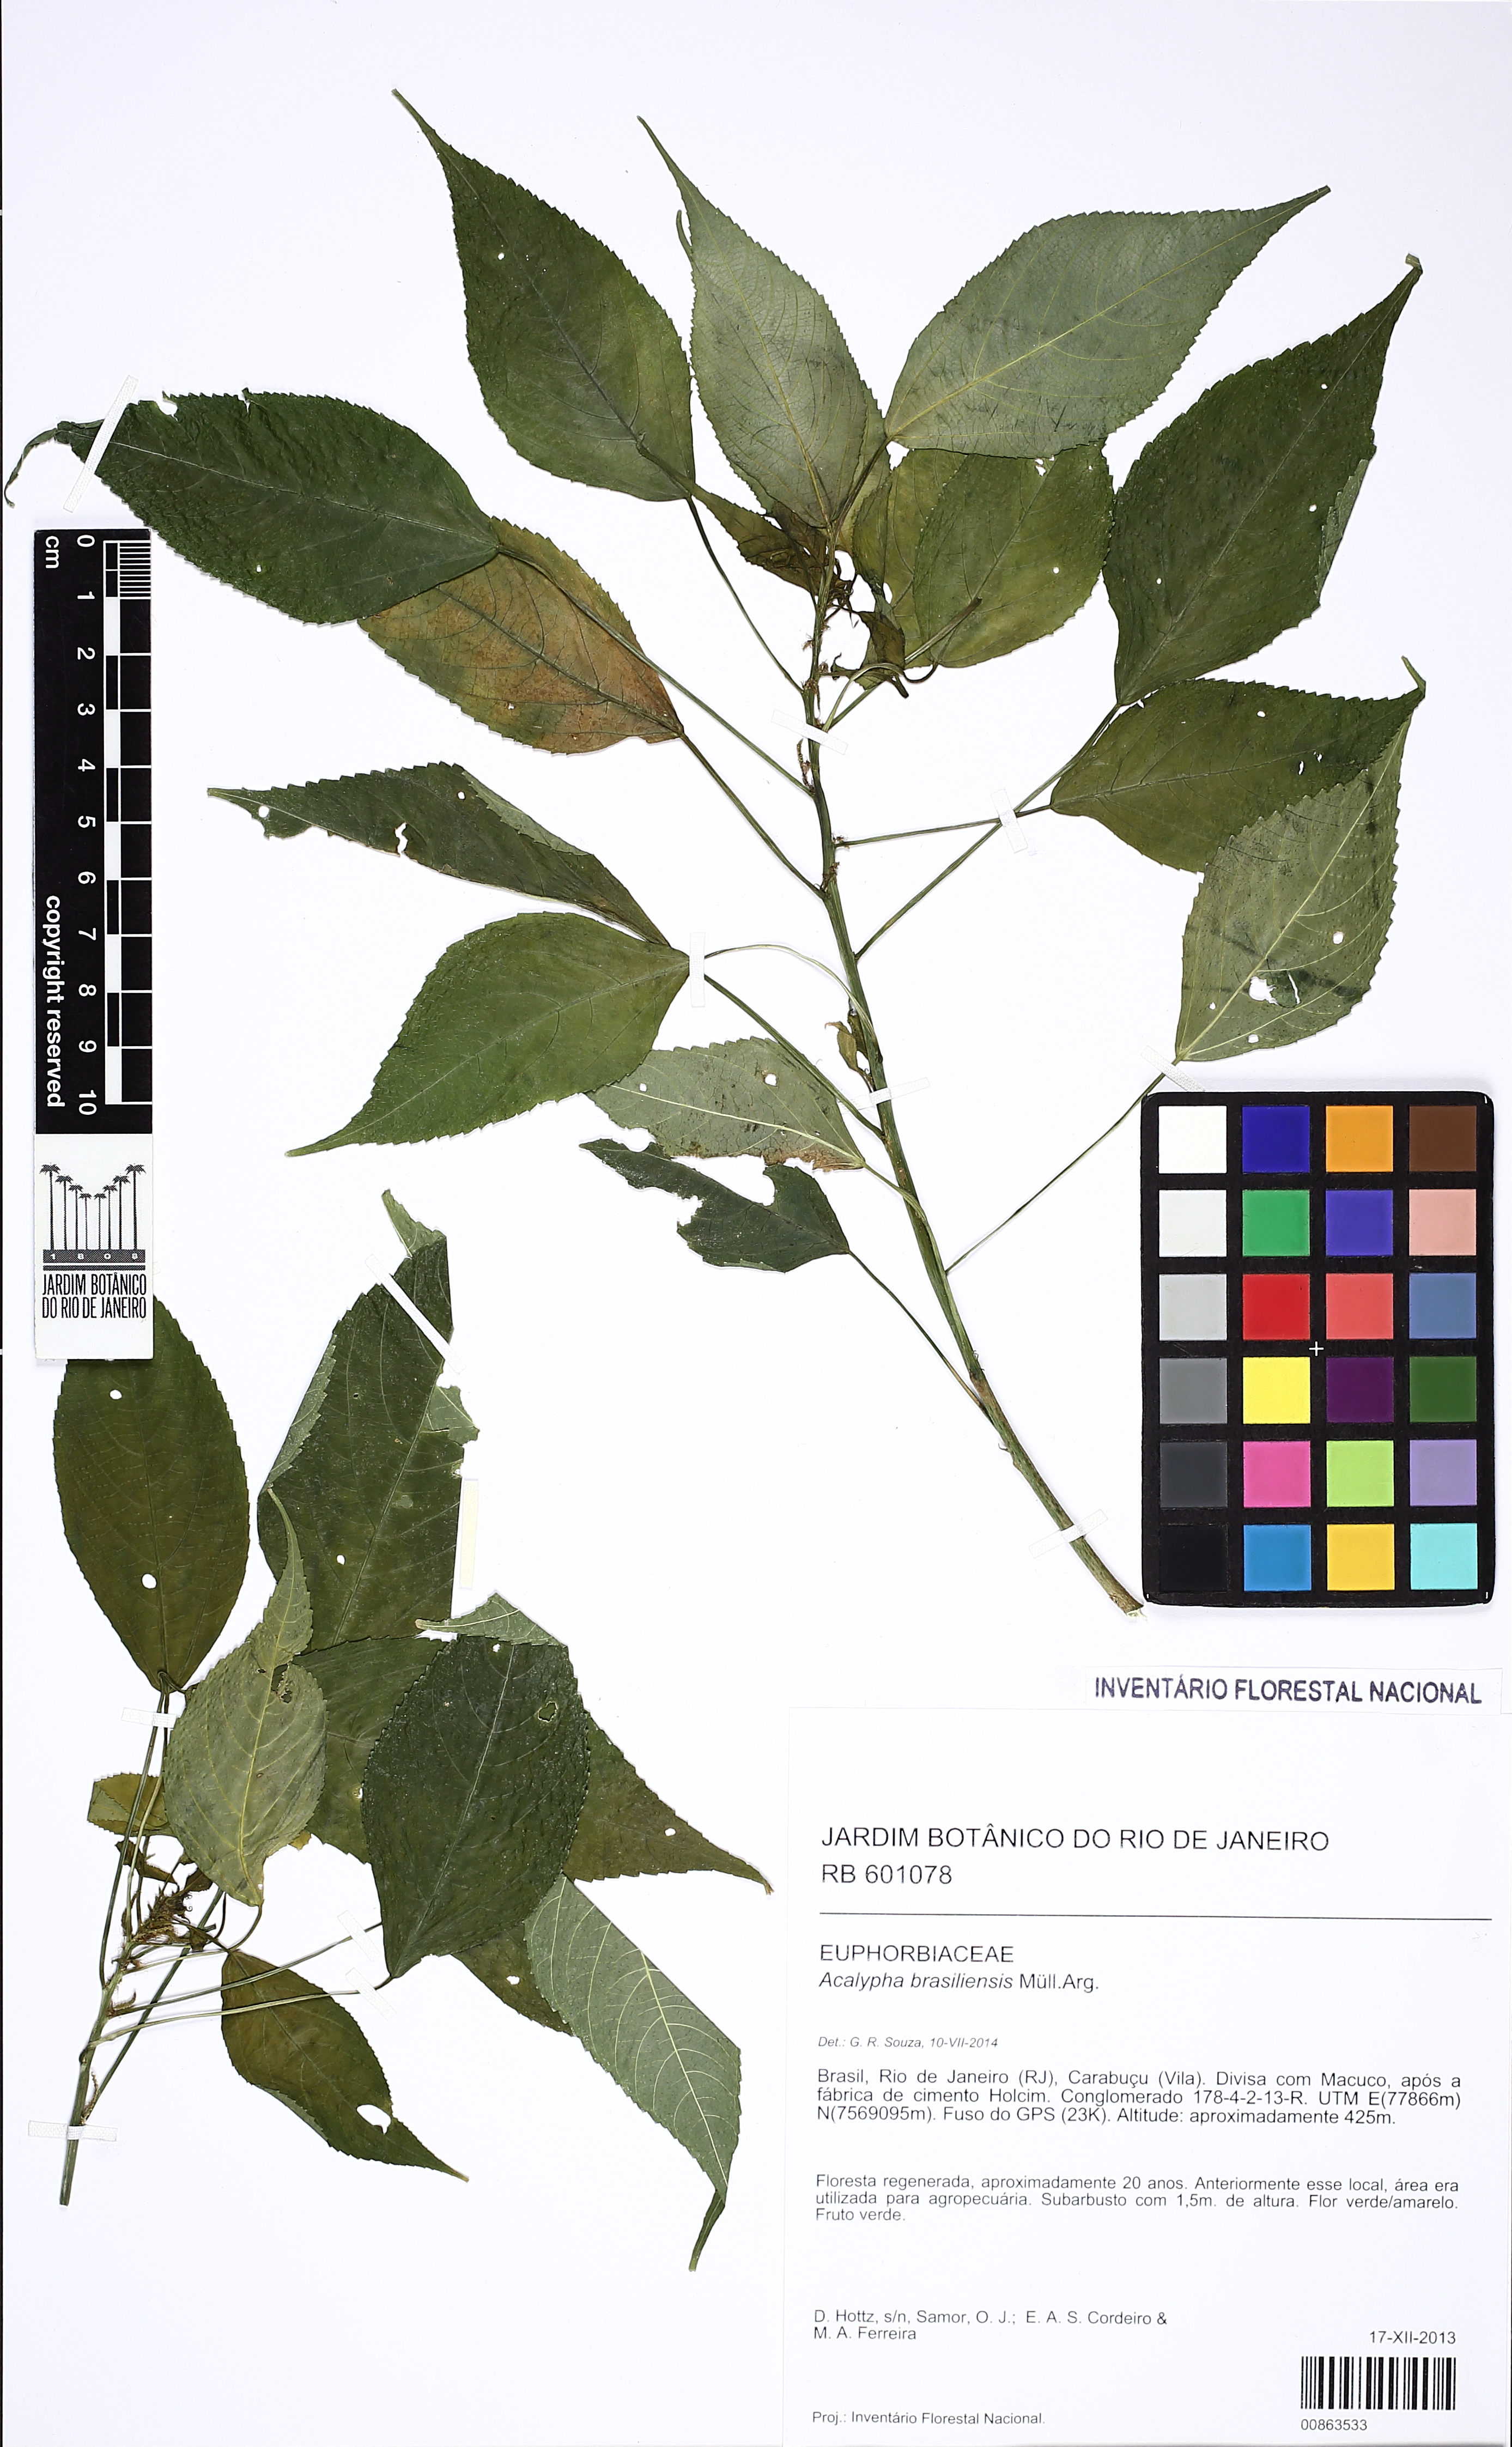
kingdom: Plantae
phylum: Tracheophyta
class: Magnoliopsida
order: Malpighiales
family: Euphorbiaceae
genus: Acalypha
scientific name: Acalypha brasiliensis
